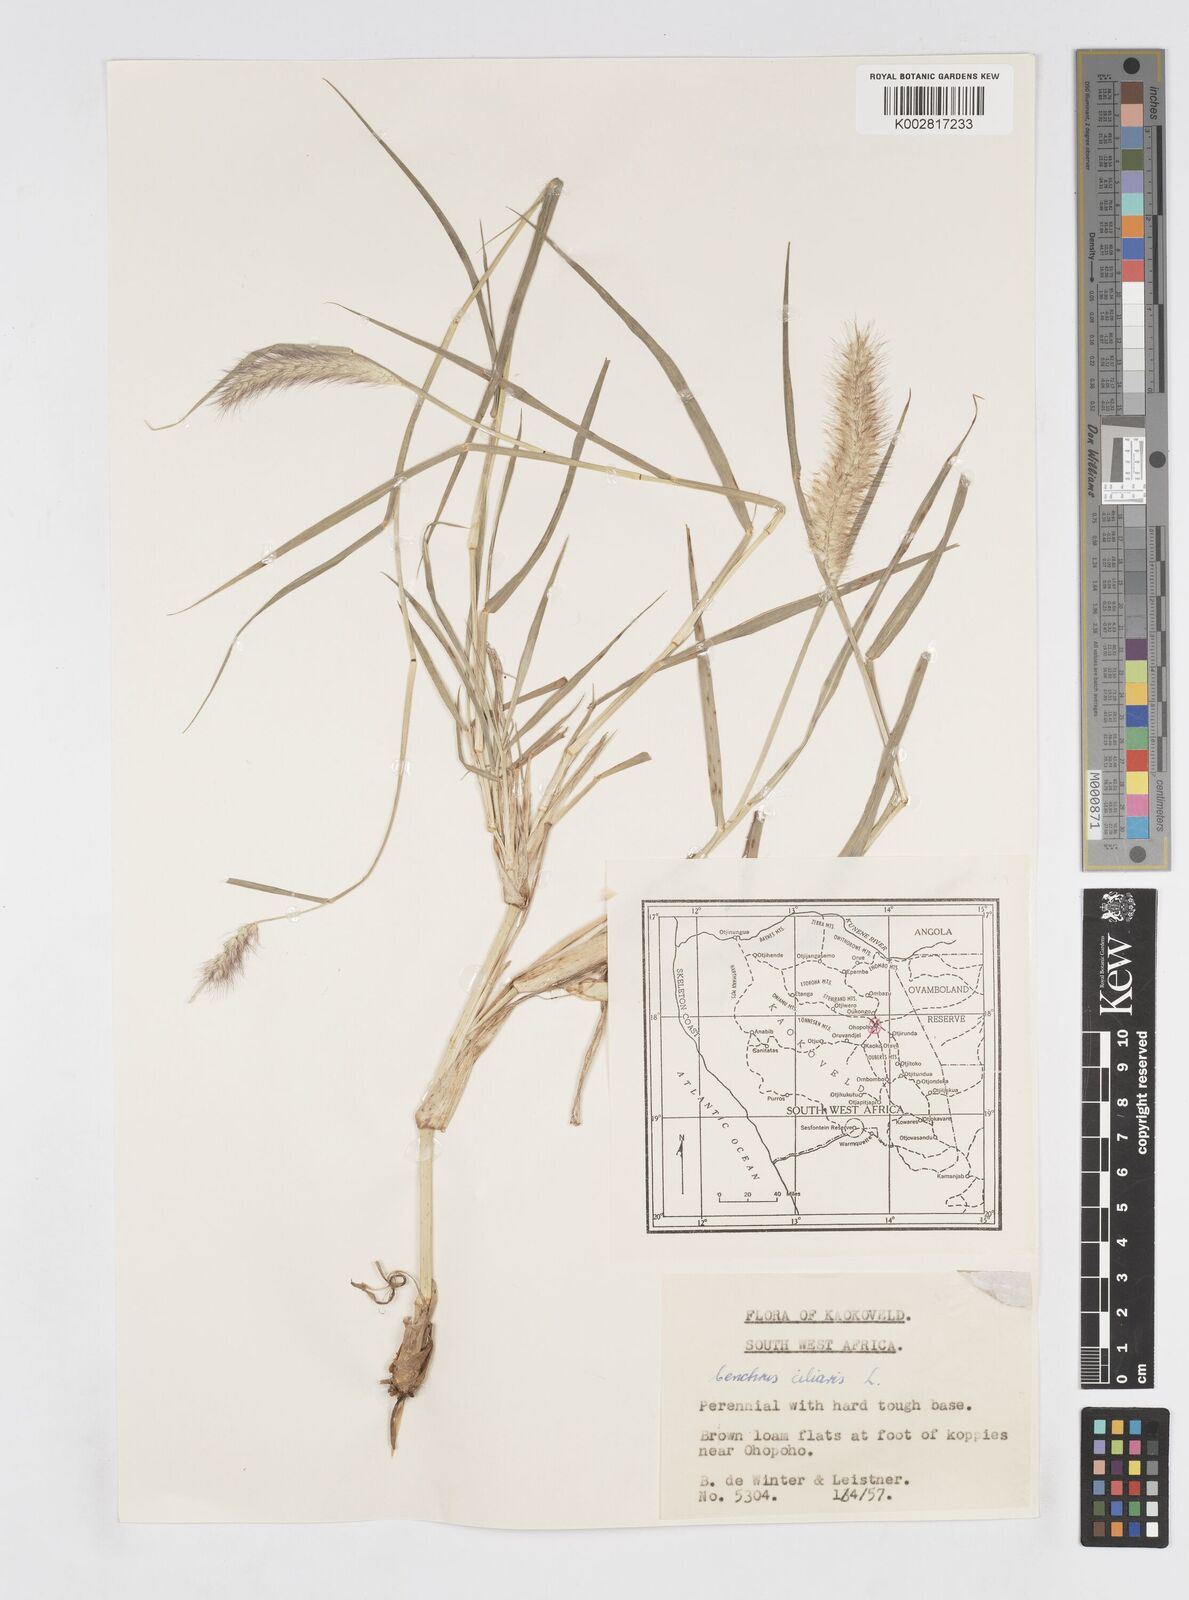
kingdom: Plantae
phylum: Tracheophyta
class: Liliopsida
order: Poales
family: Poaceae
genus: Cenchrus
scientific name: Cenchrus ciliaris
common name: Buffelgrass
